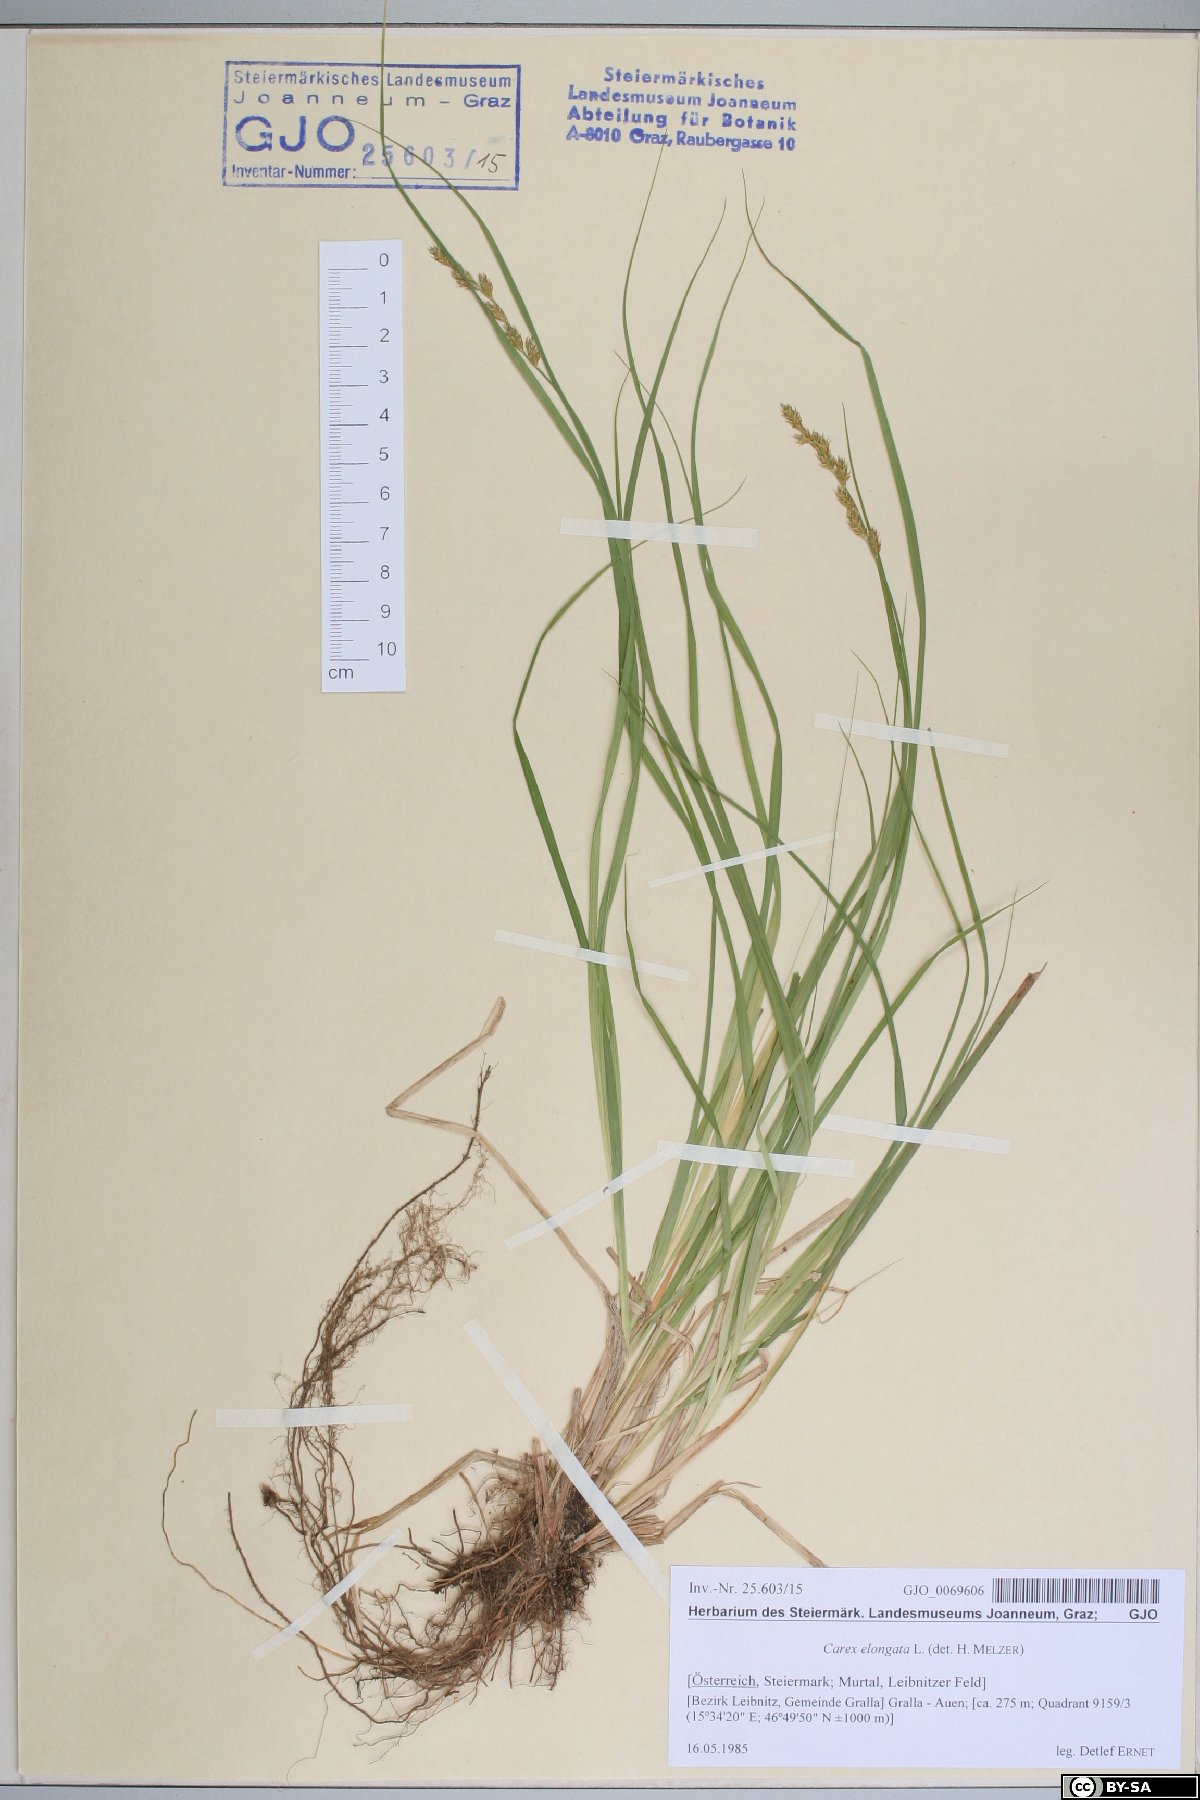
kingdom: Plantae
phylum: Tracheophyta
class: Liliopsida
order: Poales
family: Cyperaceae
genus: Carex
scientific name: Carex elongata
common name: Elongated sedge
